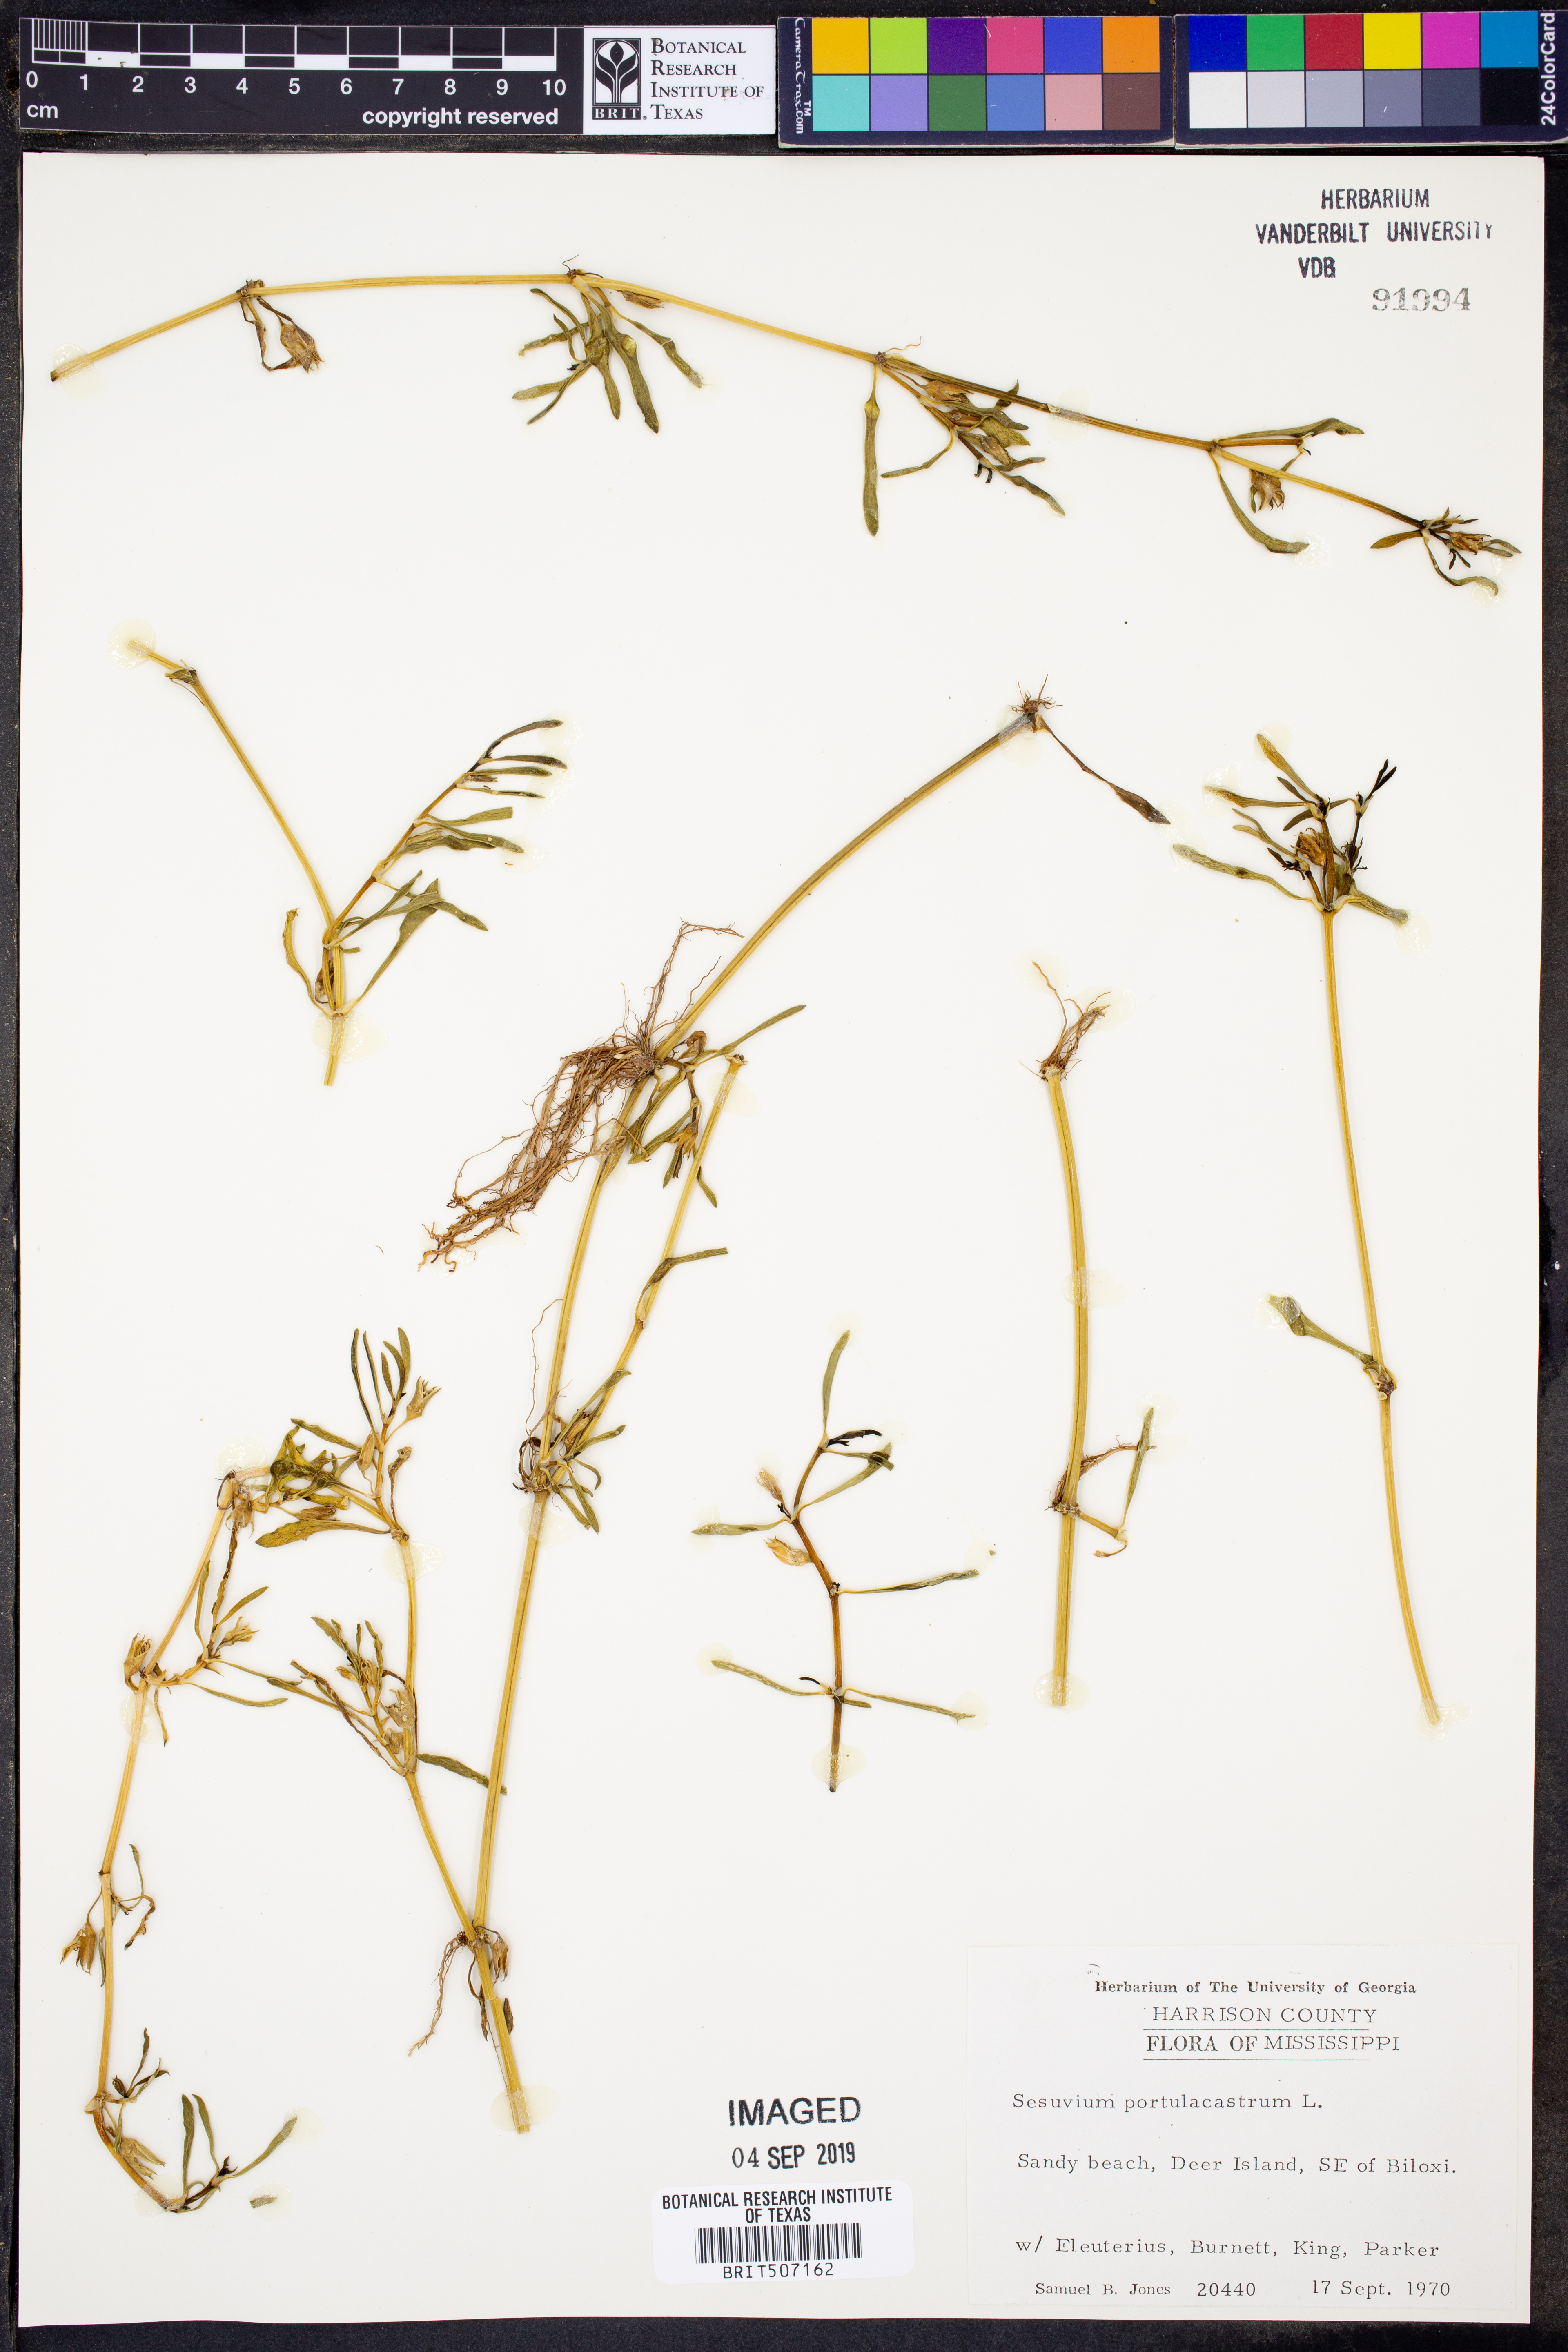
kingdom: Plantae
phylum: Tracheophyta
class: Magnoliopsida
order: Caryophyllales
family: Aizoaceae
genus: Sesuvium
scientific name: Sesuvium portulacastrum
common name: Sea-purslane
